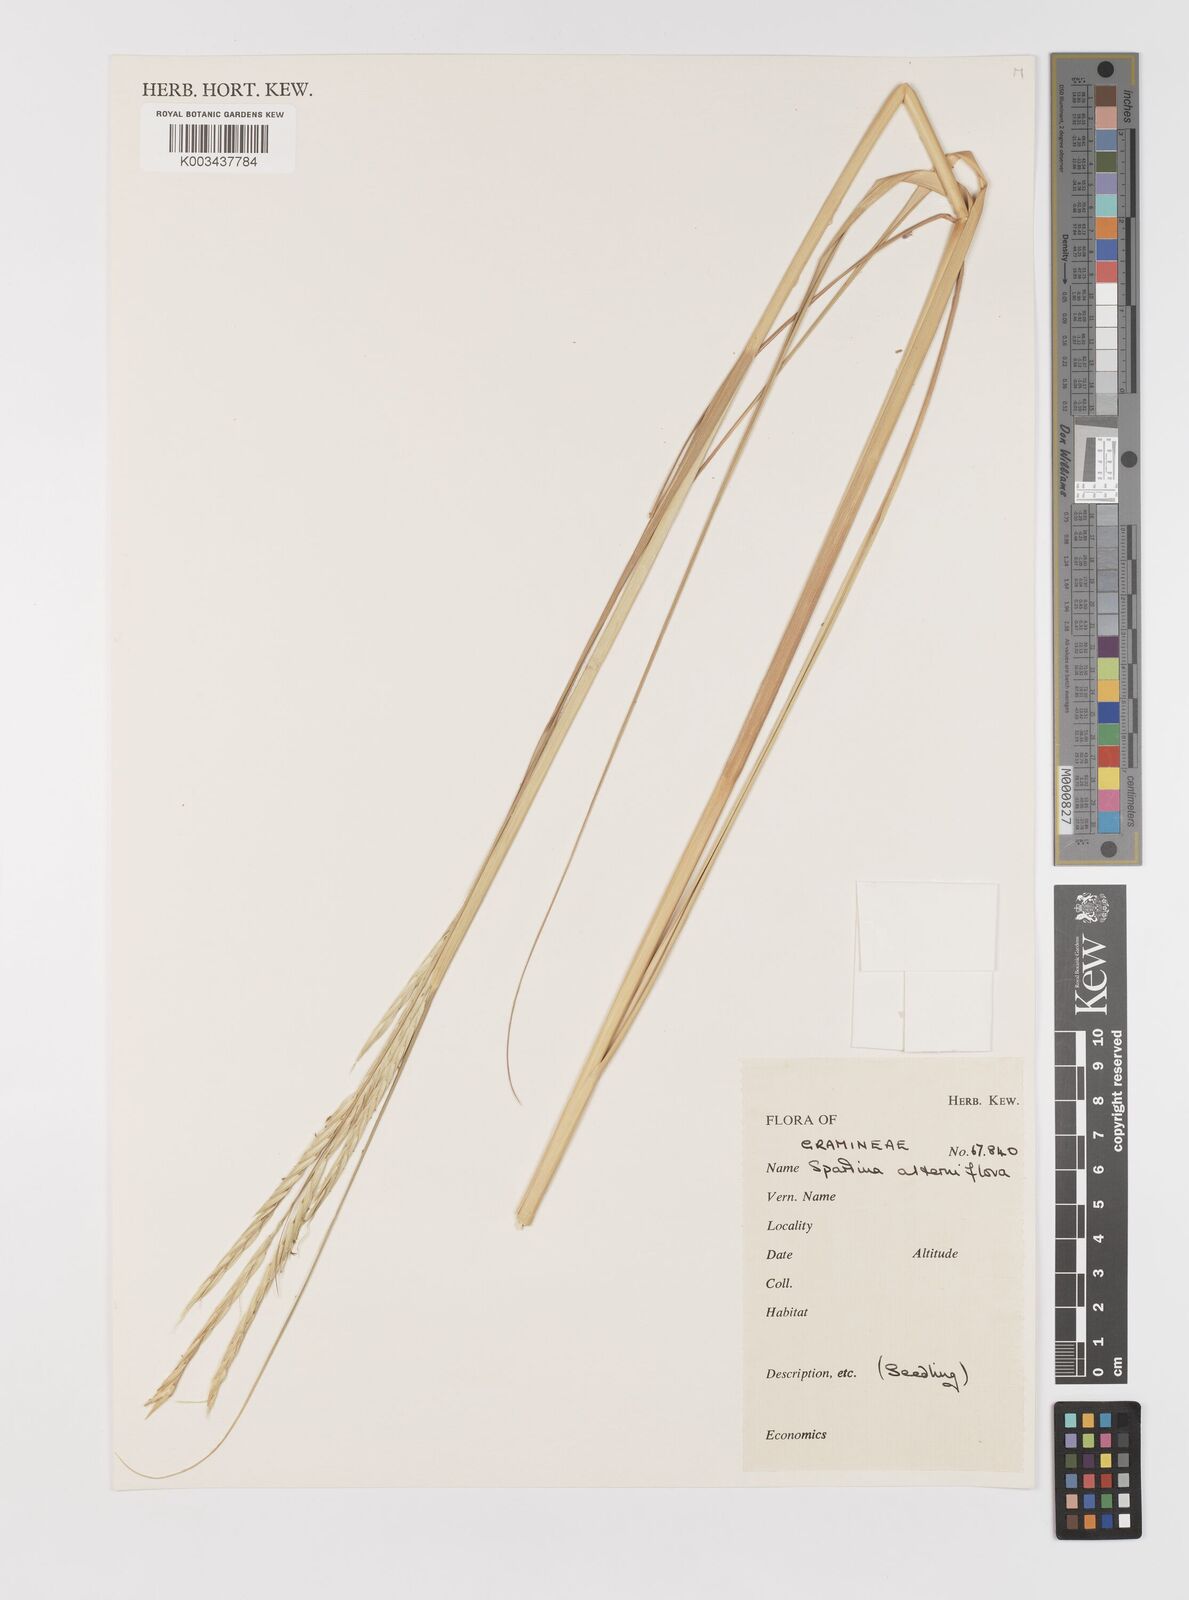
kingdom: Plantae
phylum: Tracheophyta
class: Liliopsida
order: Poales
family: Poaceae
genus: Sporobolus
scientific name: Sporobolus alterniflorus
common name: Atlantic cordgrass
